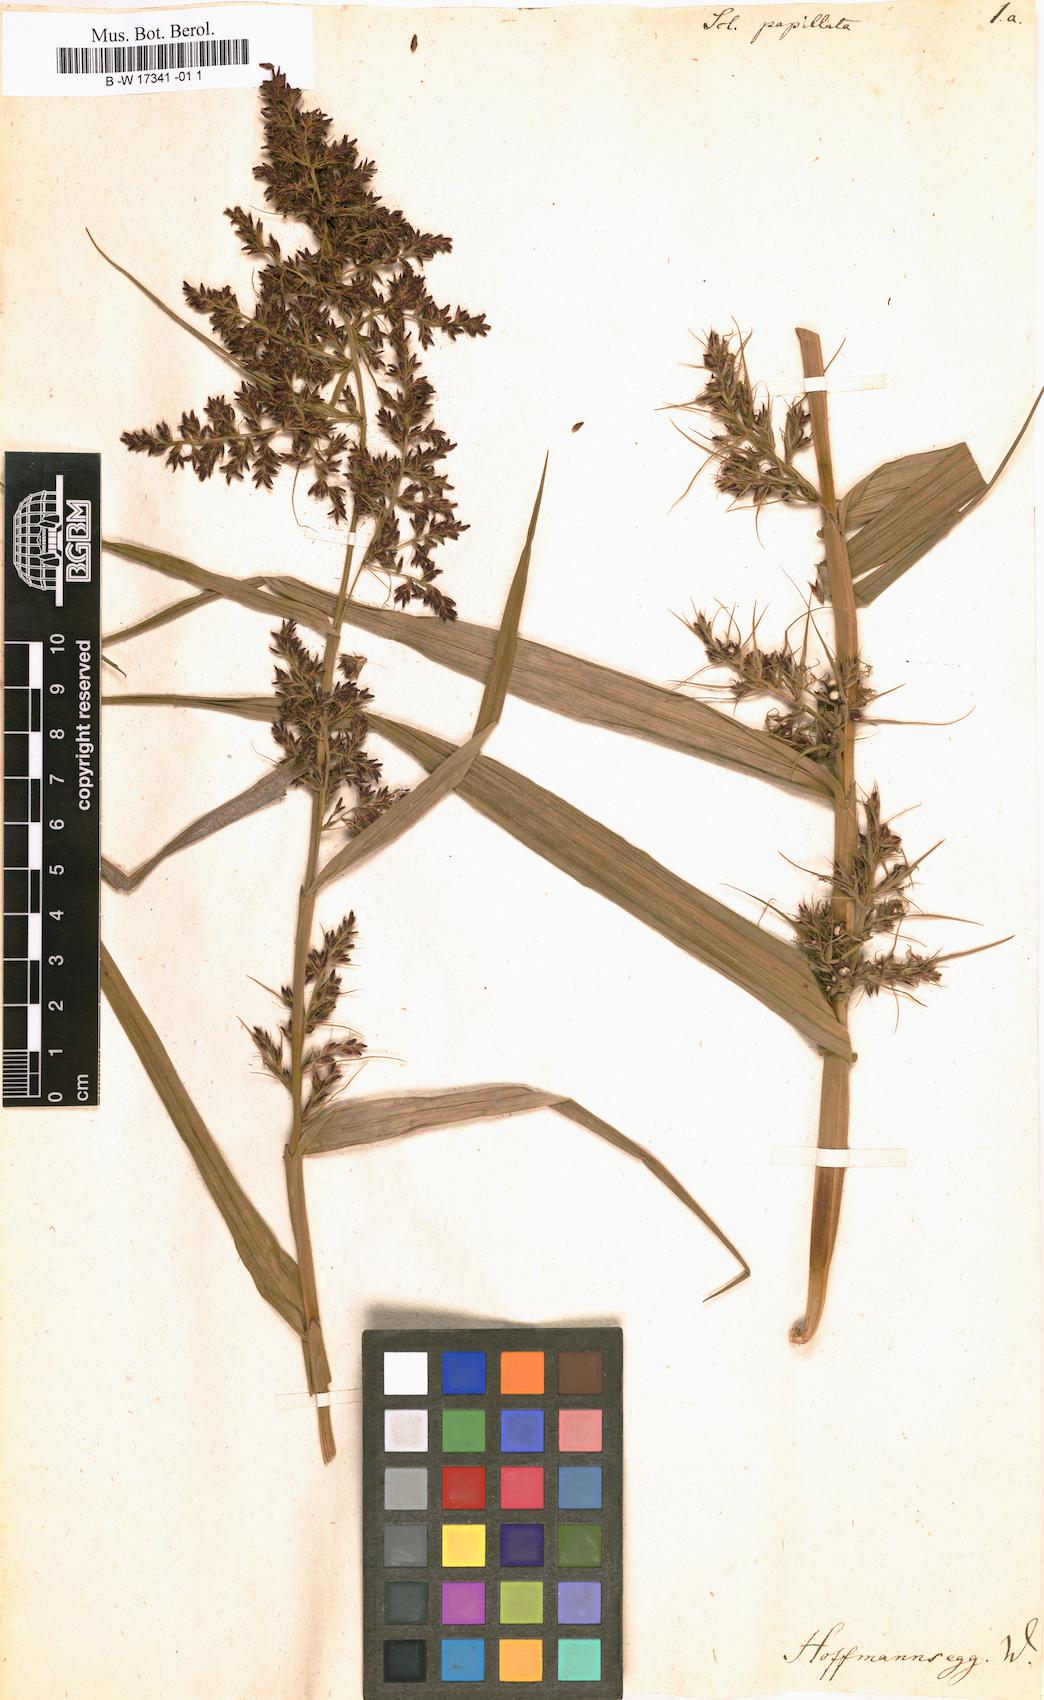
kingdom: Plantae
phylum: Tracheophyta
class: Liliopsida
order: Poales
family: Cyperaceae
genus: Scleria
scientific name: Scleria bracteata
